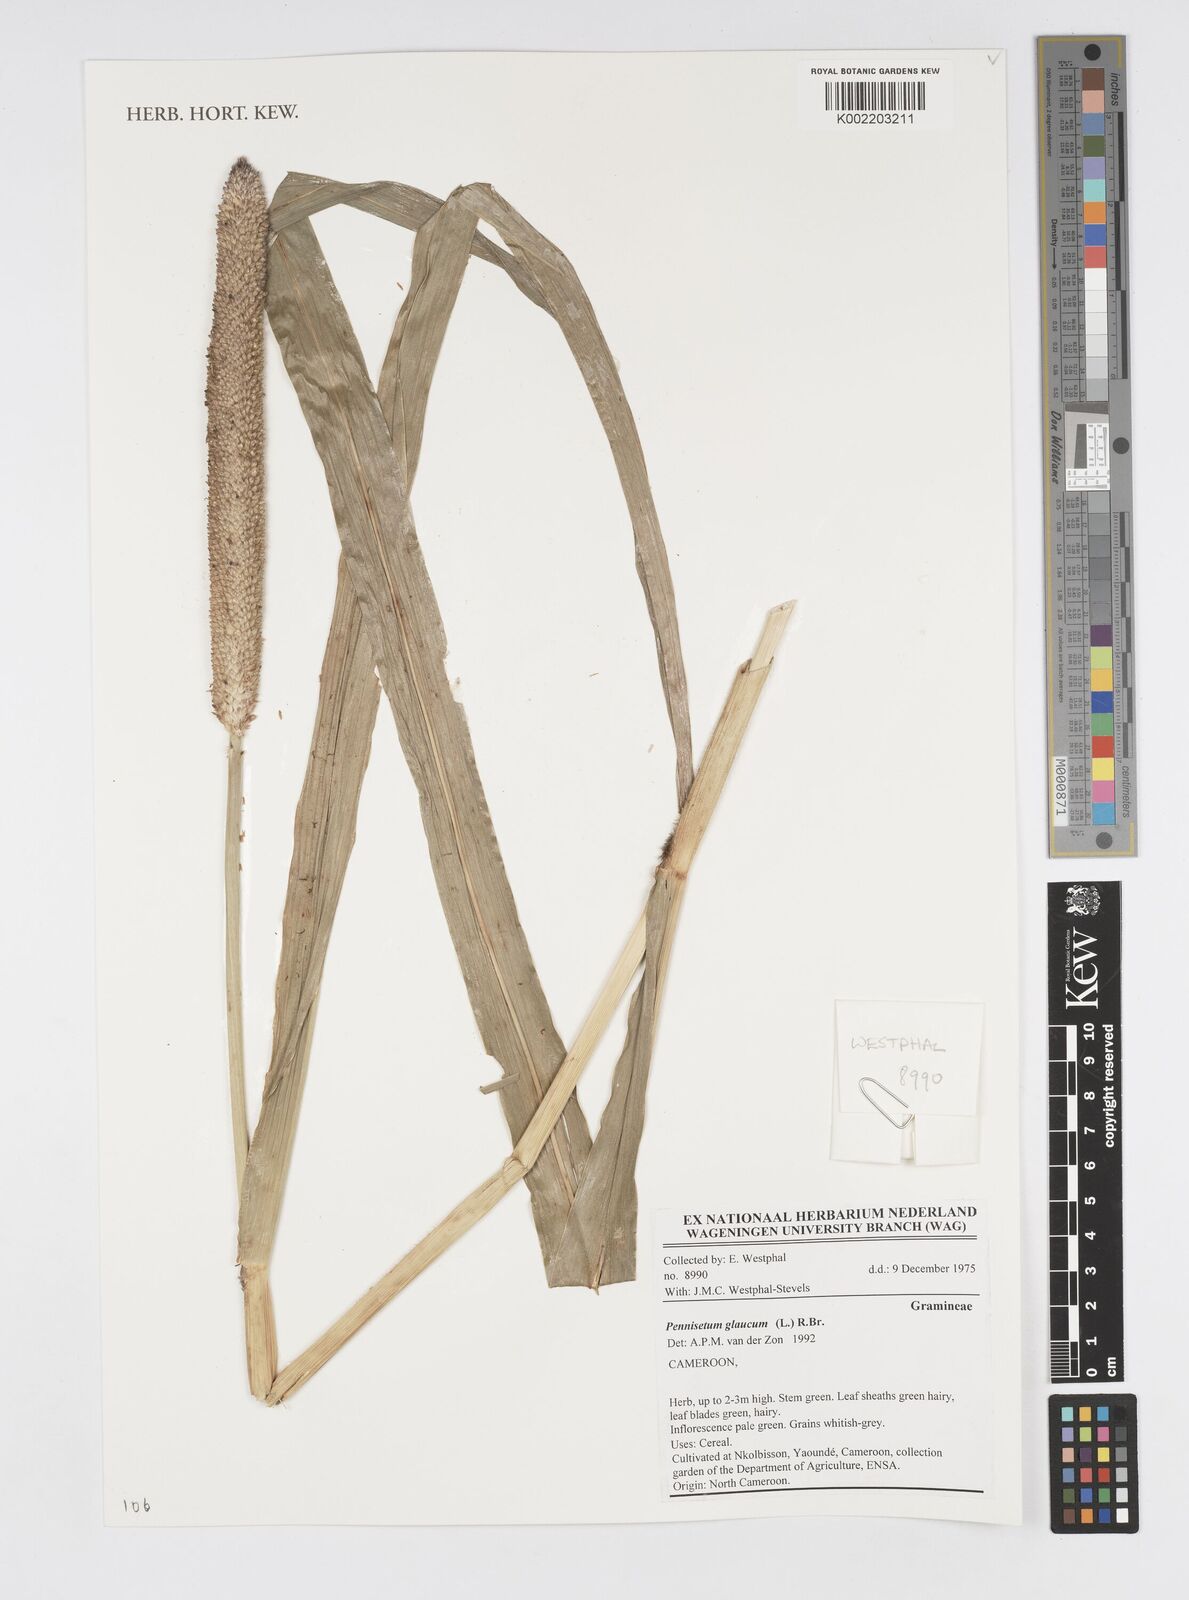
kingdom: Plantae
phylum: Tracheophyta
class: Liliopsida
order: Poales
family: Poaceae
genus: Cenchrus
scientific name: Cenchrus americanus
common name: Pearl millet
